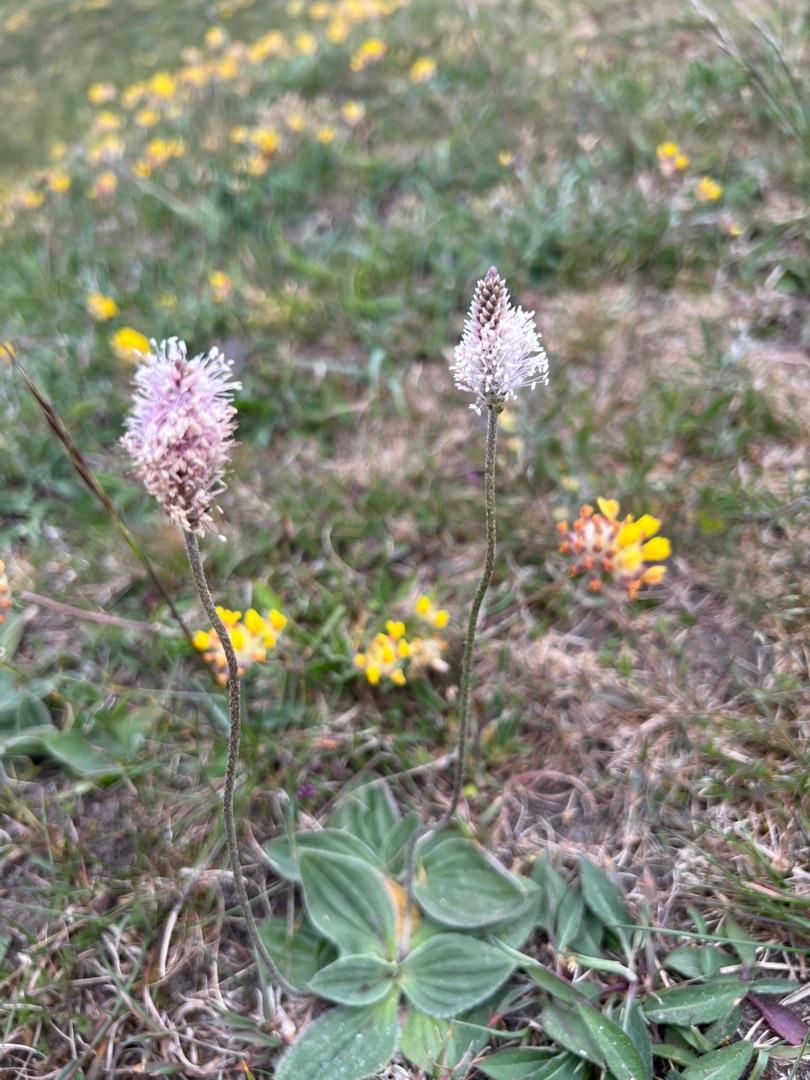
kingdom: Plantae
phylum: Tracheophyta
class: Magnoliopsida
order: Lamiales
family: Plantaginaceae
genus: Plantago
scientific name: Plantago media
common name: Dunet vejbred
